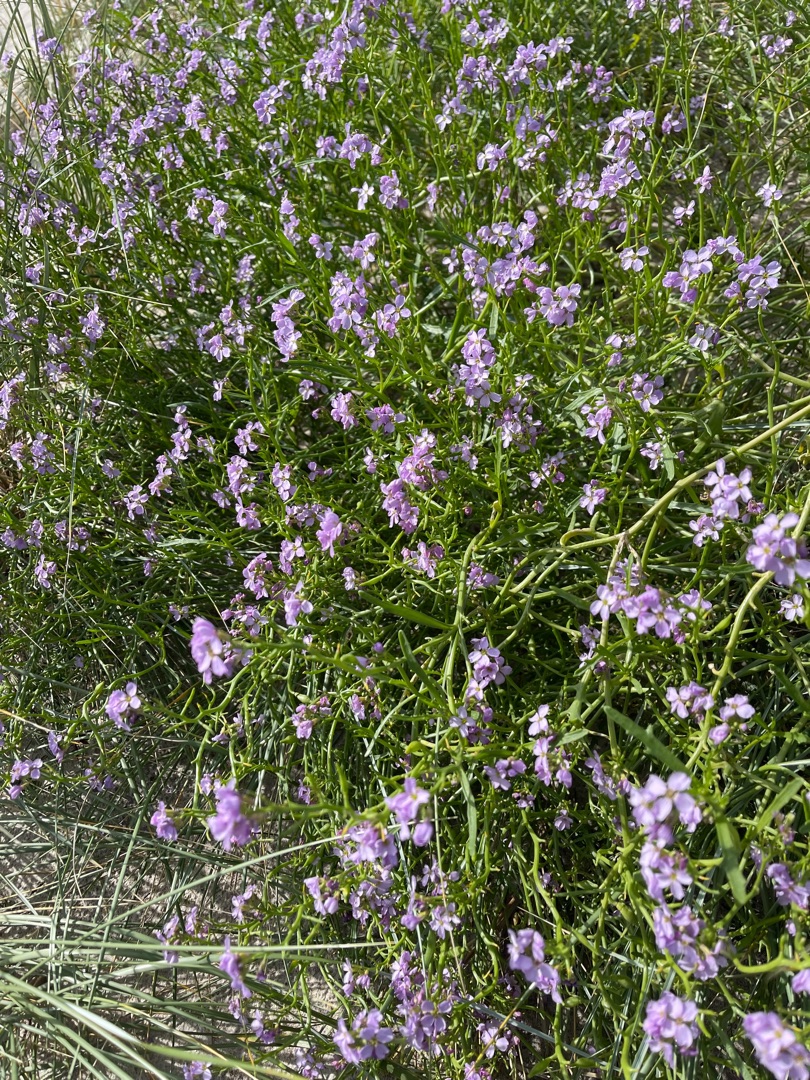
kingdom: Plantae
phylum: Tracheophyta
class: Magnoliopsida
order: Brassicales
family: Brassicaceae
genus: Cakile
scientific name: Cakile maritima
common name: Strandsennep
